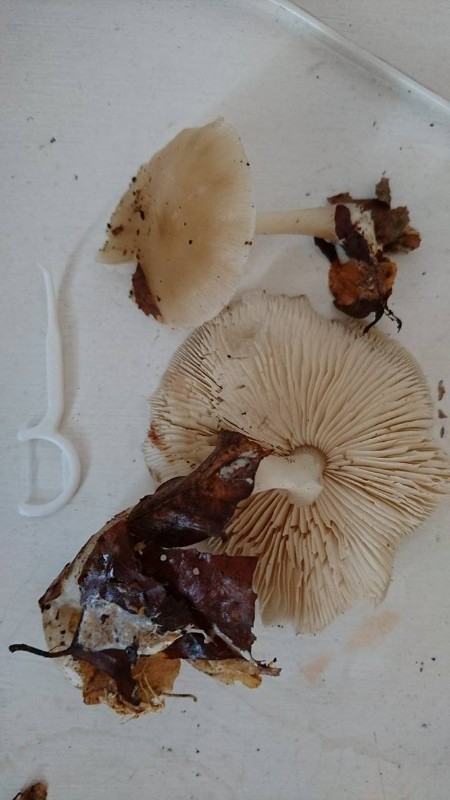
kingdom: Fungi
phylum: Basidiomycota
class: Agaricomycetes
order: Agaricales
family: Omphalotaceae
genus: Rhodocollybia
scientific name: Rhodocollybia asema
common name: horngrå fladhat
